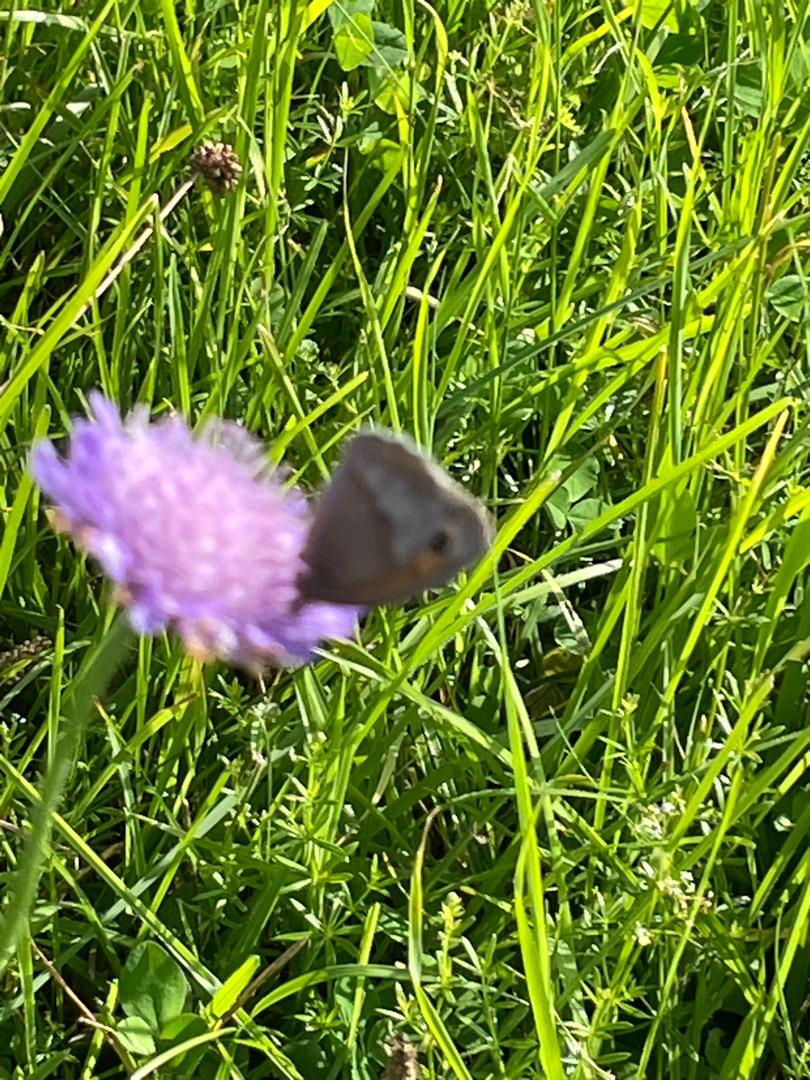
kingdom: Animalia
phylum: Arthropoda
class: Insecta
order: Lepidoptera
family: Nymphalidae
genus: Maniola
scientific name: Maniola jurtina
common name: Græsrandøje
